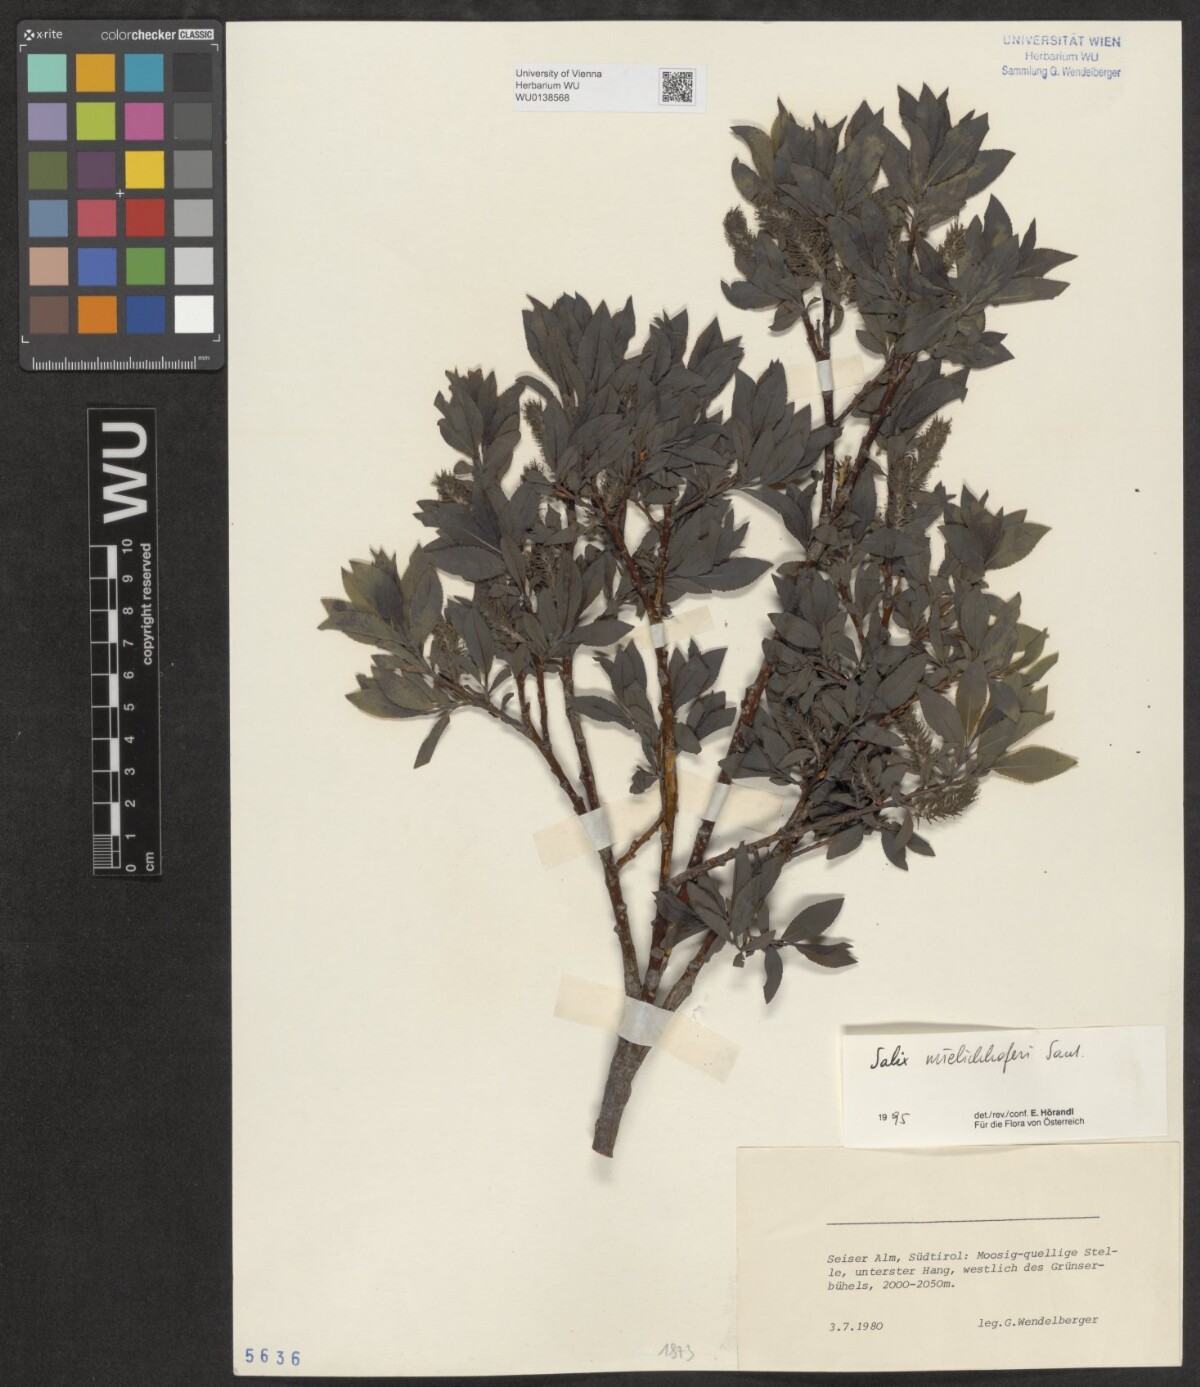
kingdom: Plantae
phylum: Tracheophyta
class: Magnoliopsida
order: Malpighiales
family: Salicaceae
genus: Salix
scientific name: Salix mielichhoferi
